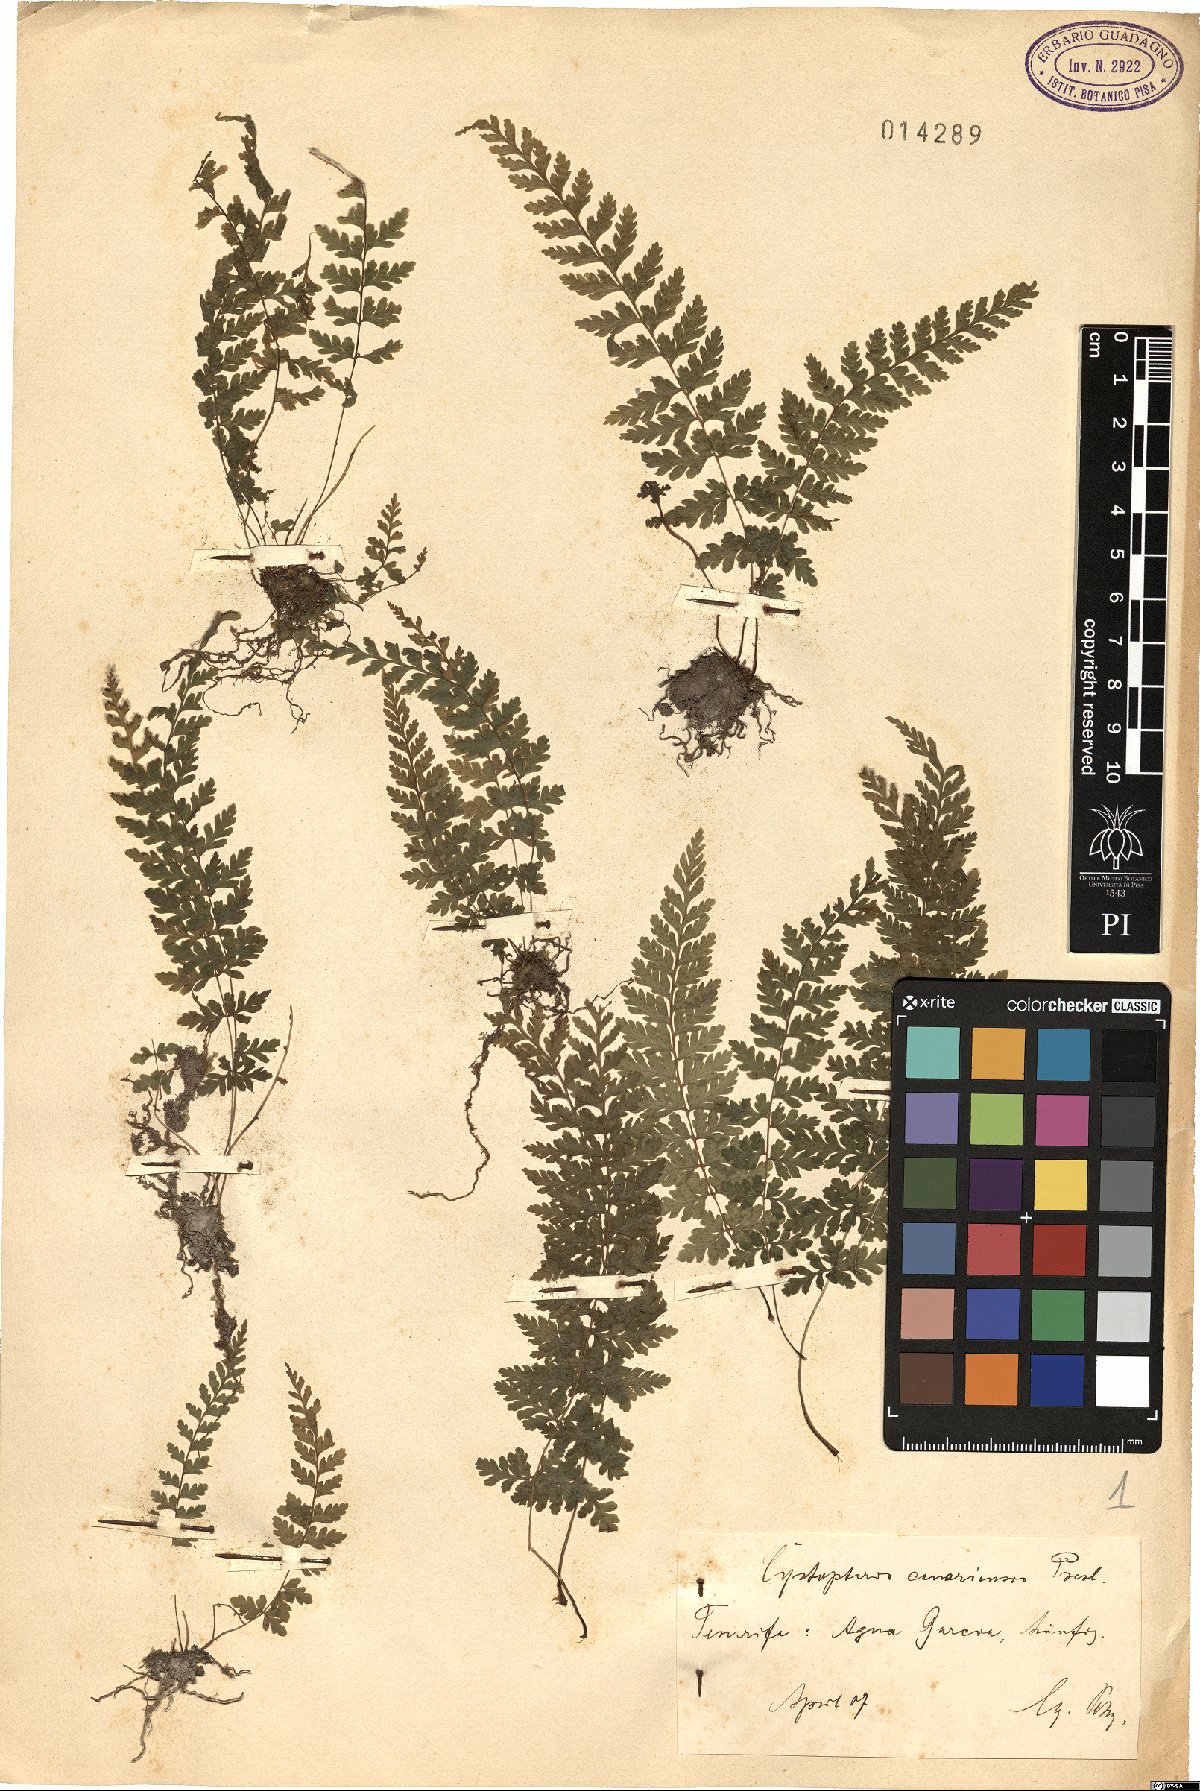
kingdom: Plantae
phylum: Tracheophyta
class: Polypodiopsida
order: Polypodiales
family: Cystopteridaceae
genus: Cystopteris
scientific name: Cystopteris diaphana
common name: Greenish bladder-fern
